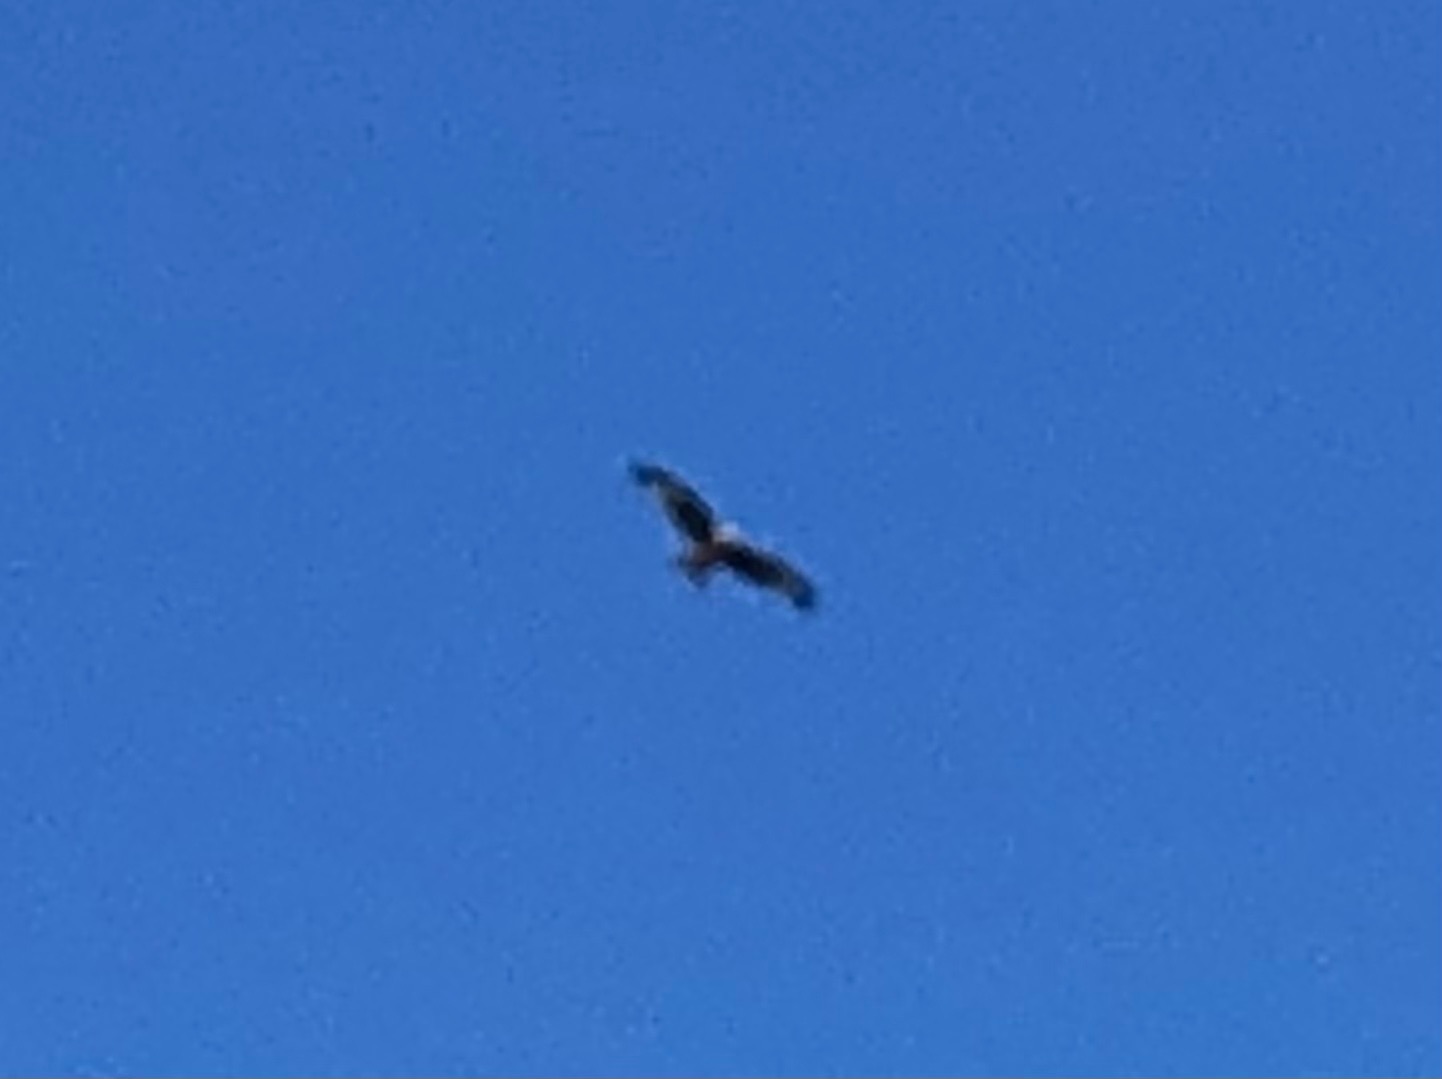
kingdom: Animalia
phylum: Chordata
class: Aves
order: Accipitriformes
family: Accipitridae
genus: Milvus
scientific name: Milvus milvus
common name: Rød glente
